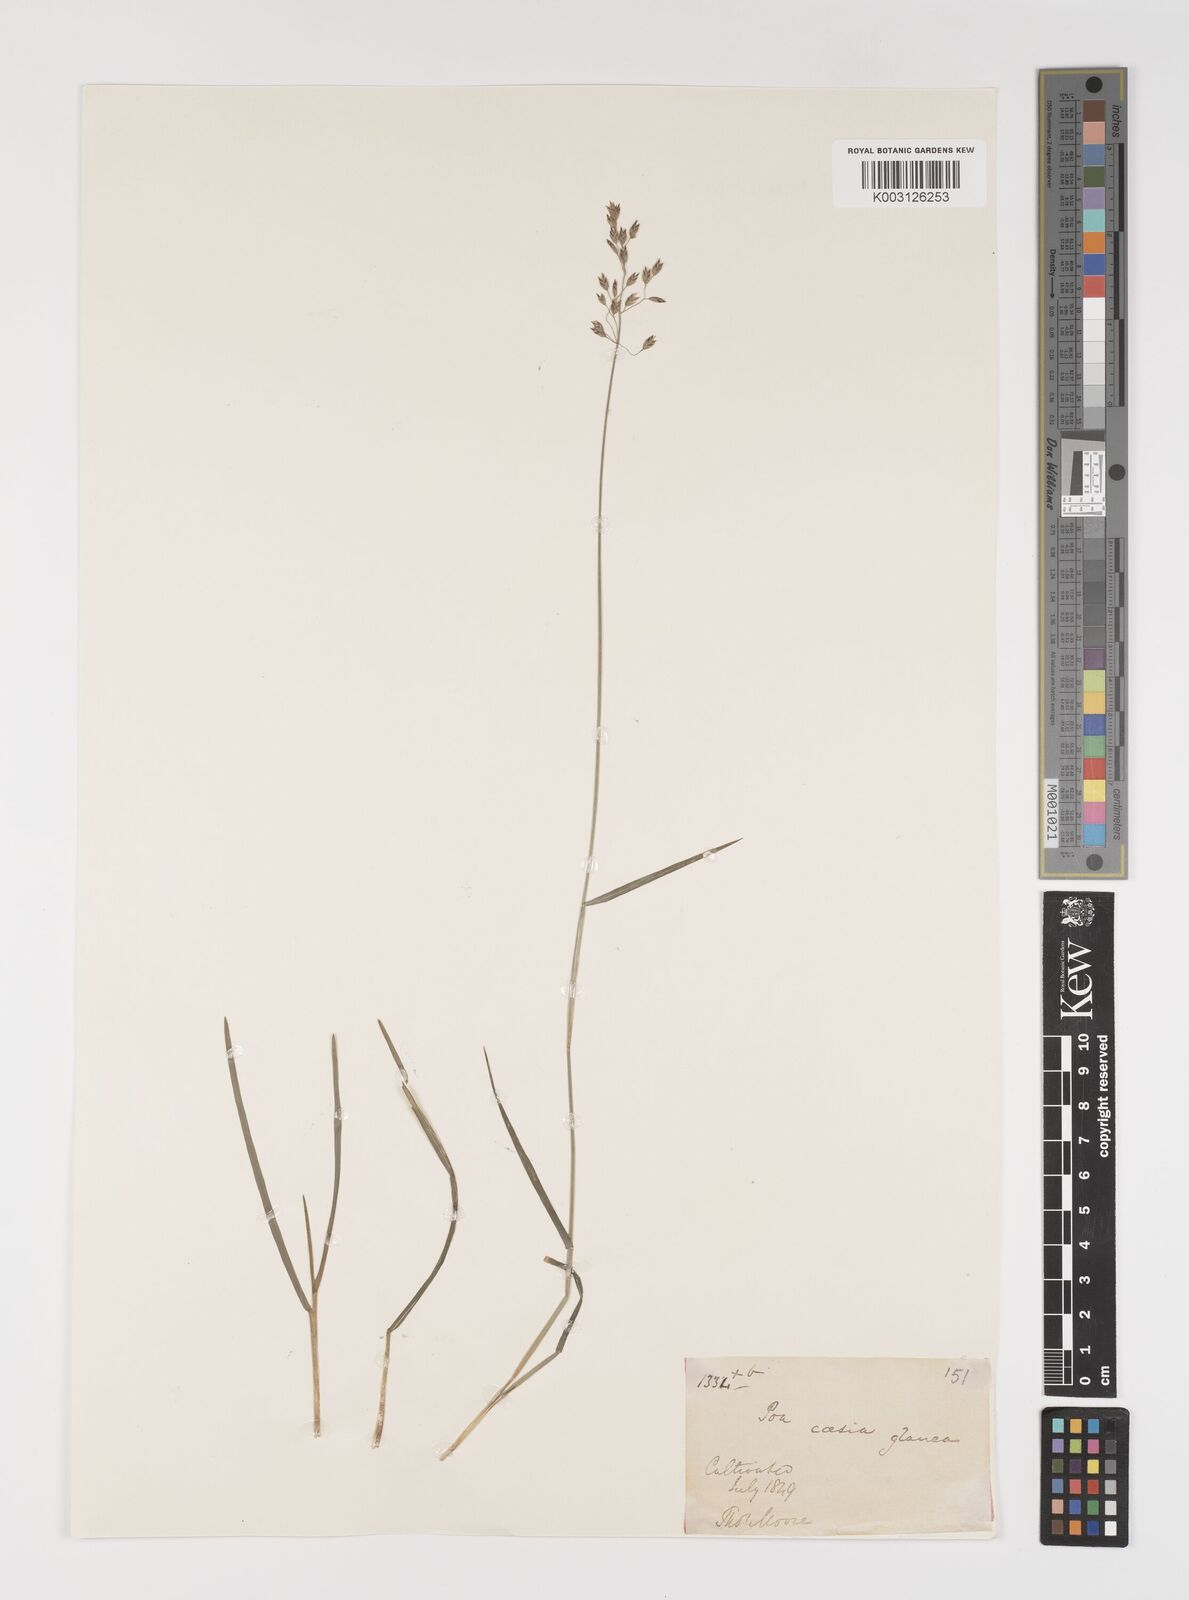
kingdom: Plantae
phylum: Tracheophyta
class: Liliopsida
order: Poales
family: Poaceae
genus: Poa
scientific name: Poa glauca
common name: Glaucous bluegrass
